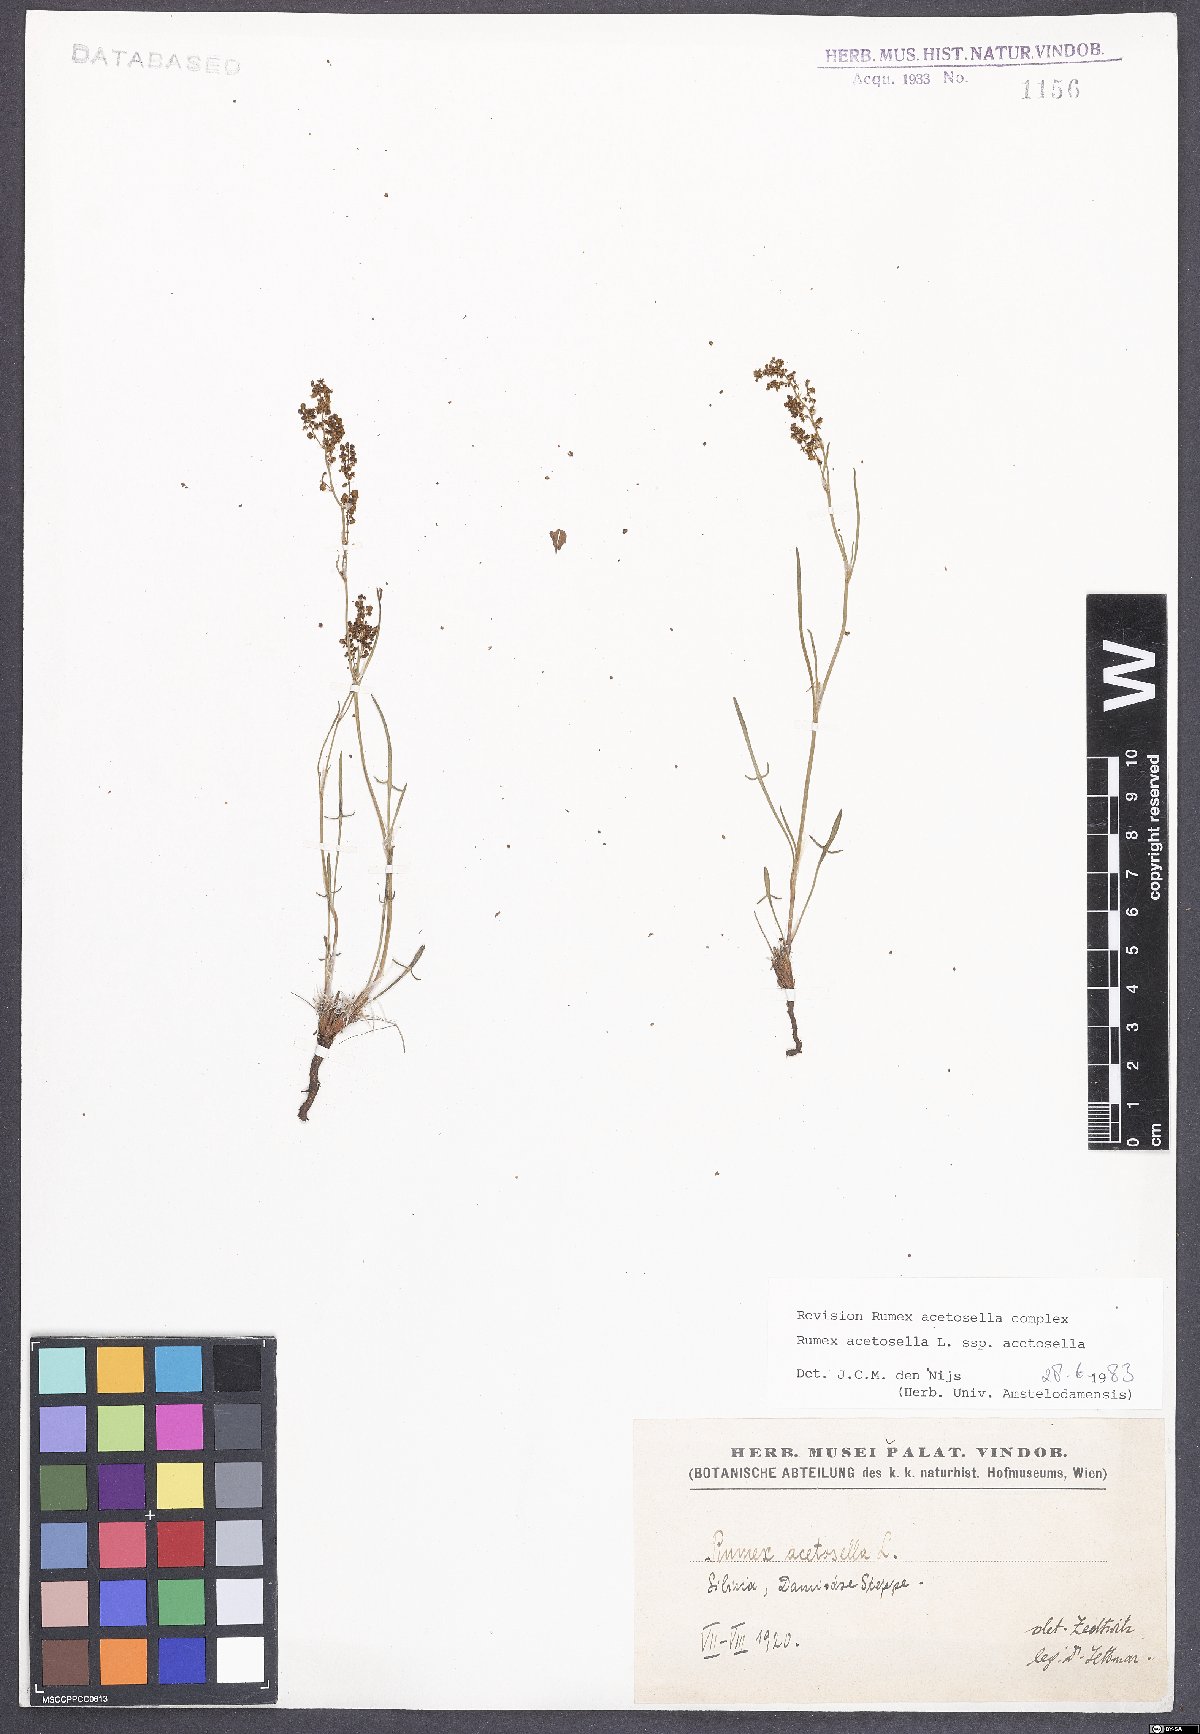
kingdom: Plantae
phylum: Tracheophyta
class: Magnoliopsida
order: Caryophyllales
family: Polygonaceae
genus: Rumex
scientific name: Rumex acetosella
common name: Common sheep sorrel
